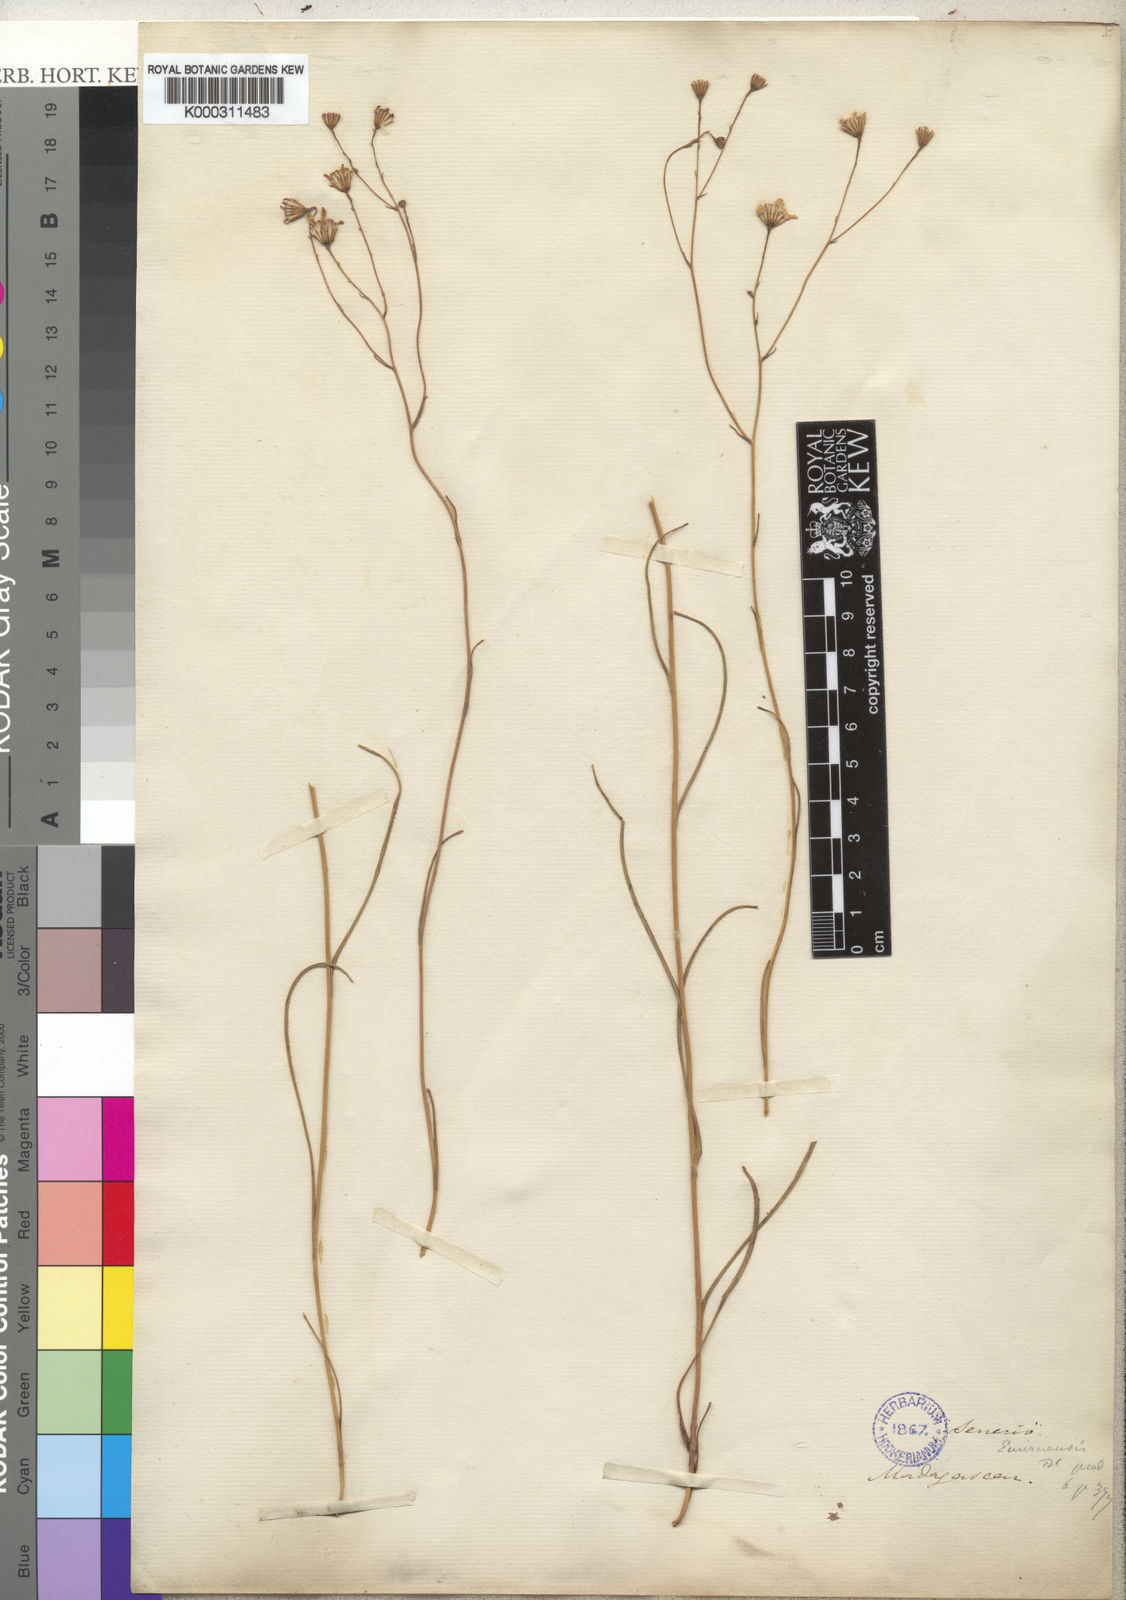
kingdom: Plantae
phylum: Tracheophyta
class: Magnoliopsida
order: Asterales
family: Asteraceae
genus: Senecio
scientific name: Senecio emirnensis
